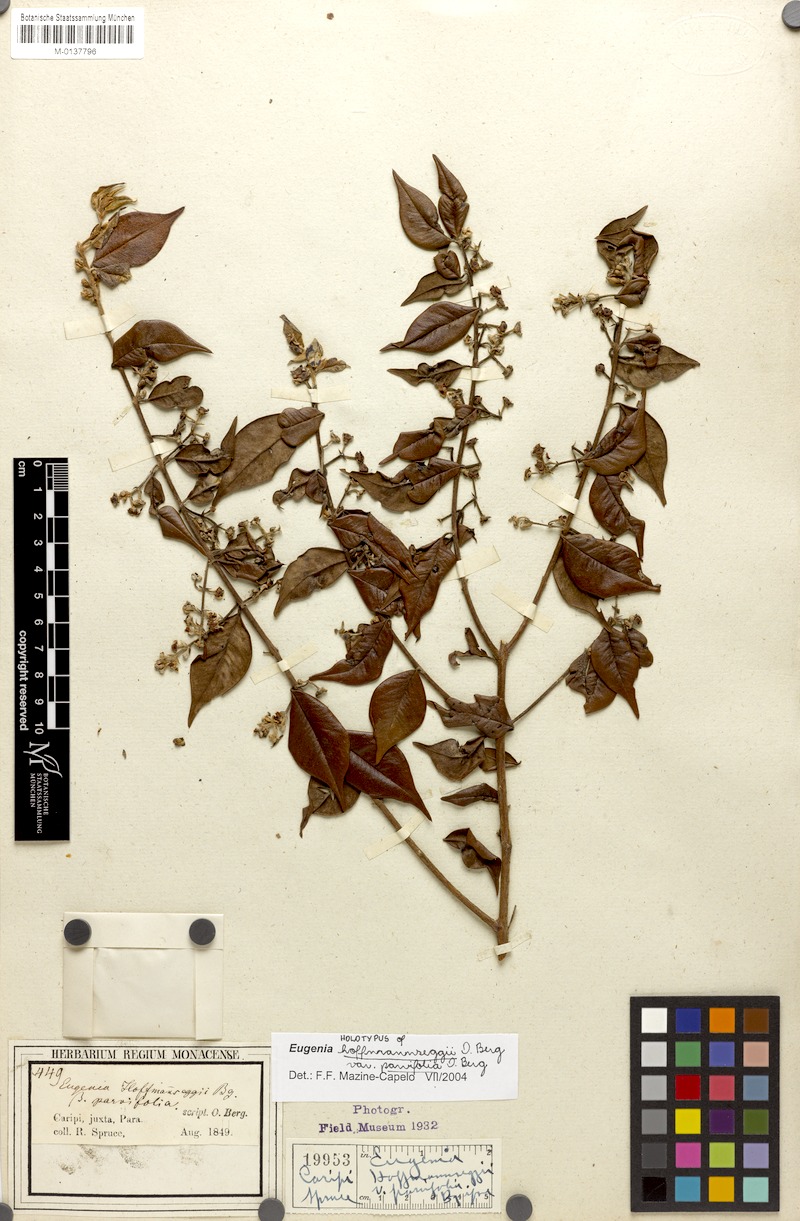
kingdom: Plantae
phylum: Tracheophyta
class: Magnoliopsida
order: Myrtales
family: Myrtaceae
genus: Eugenia
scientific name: Eugenia biflora
